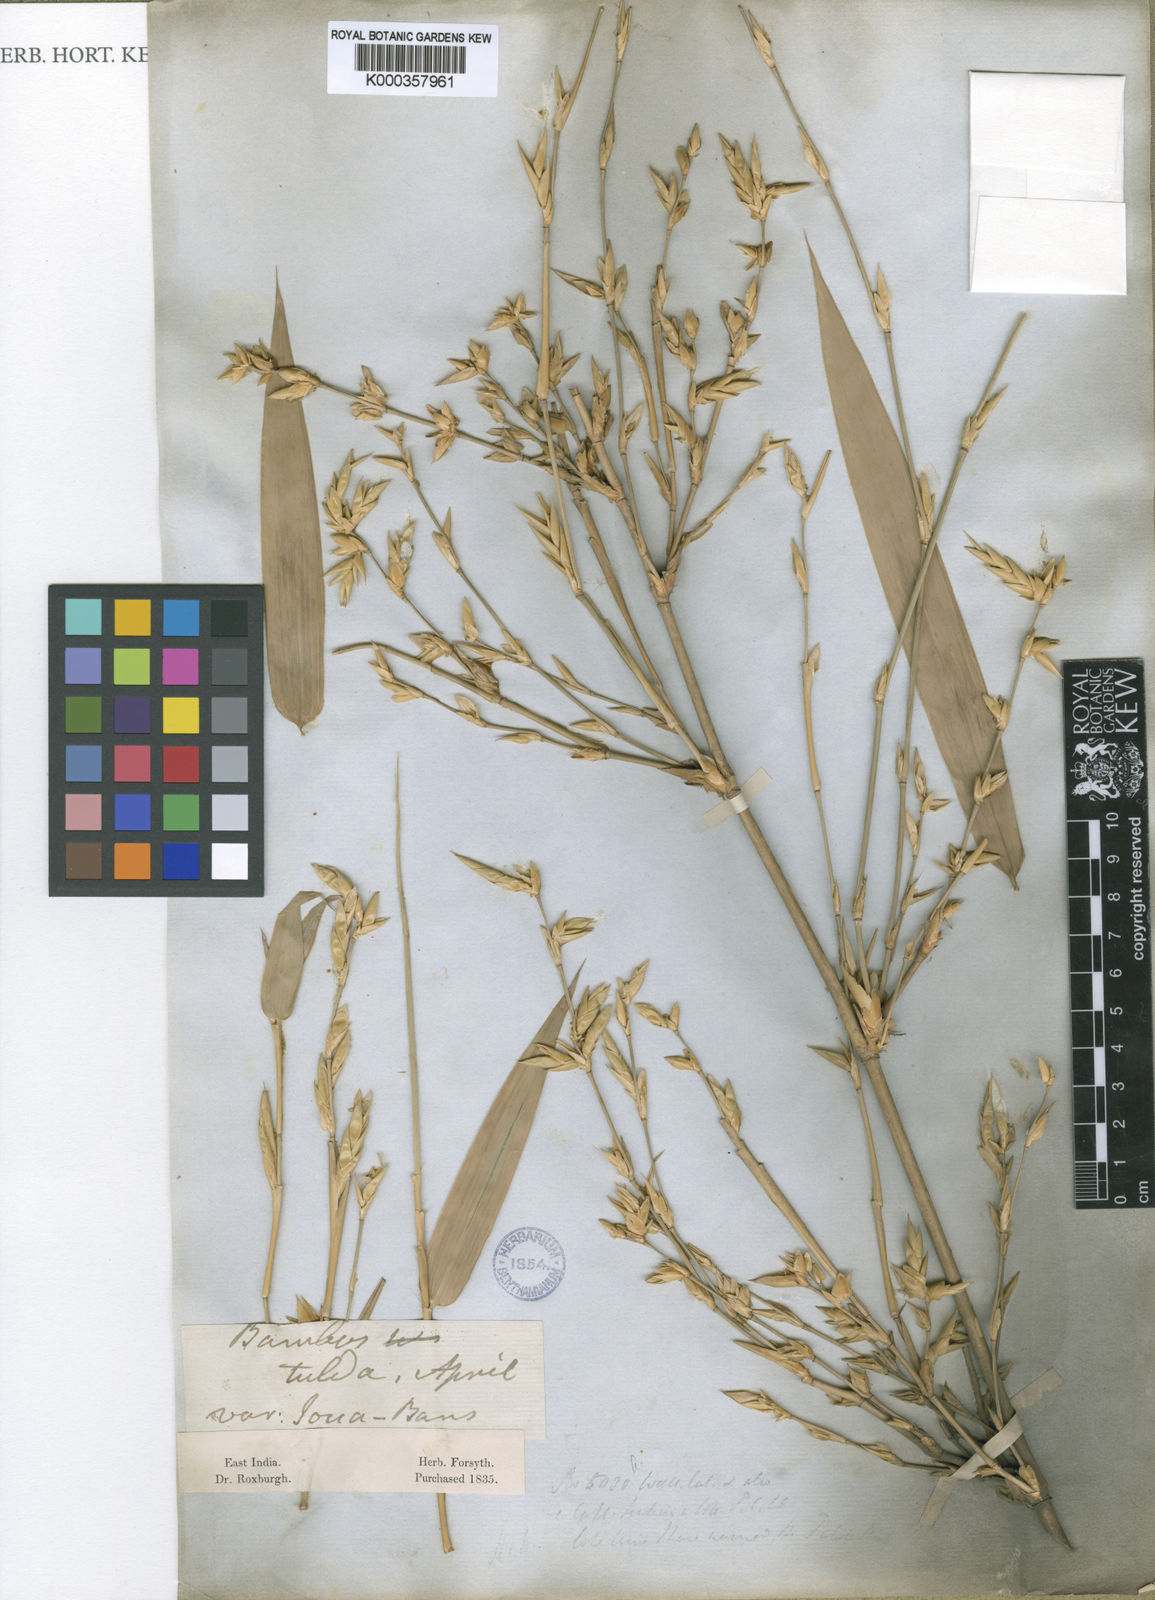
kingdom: Plantae
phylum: Tracheophyta
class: Liliopsida
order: Poales
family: Poaceae
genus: Bambusa
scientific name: Bambusa tulda
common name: Bengal bamboo
